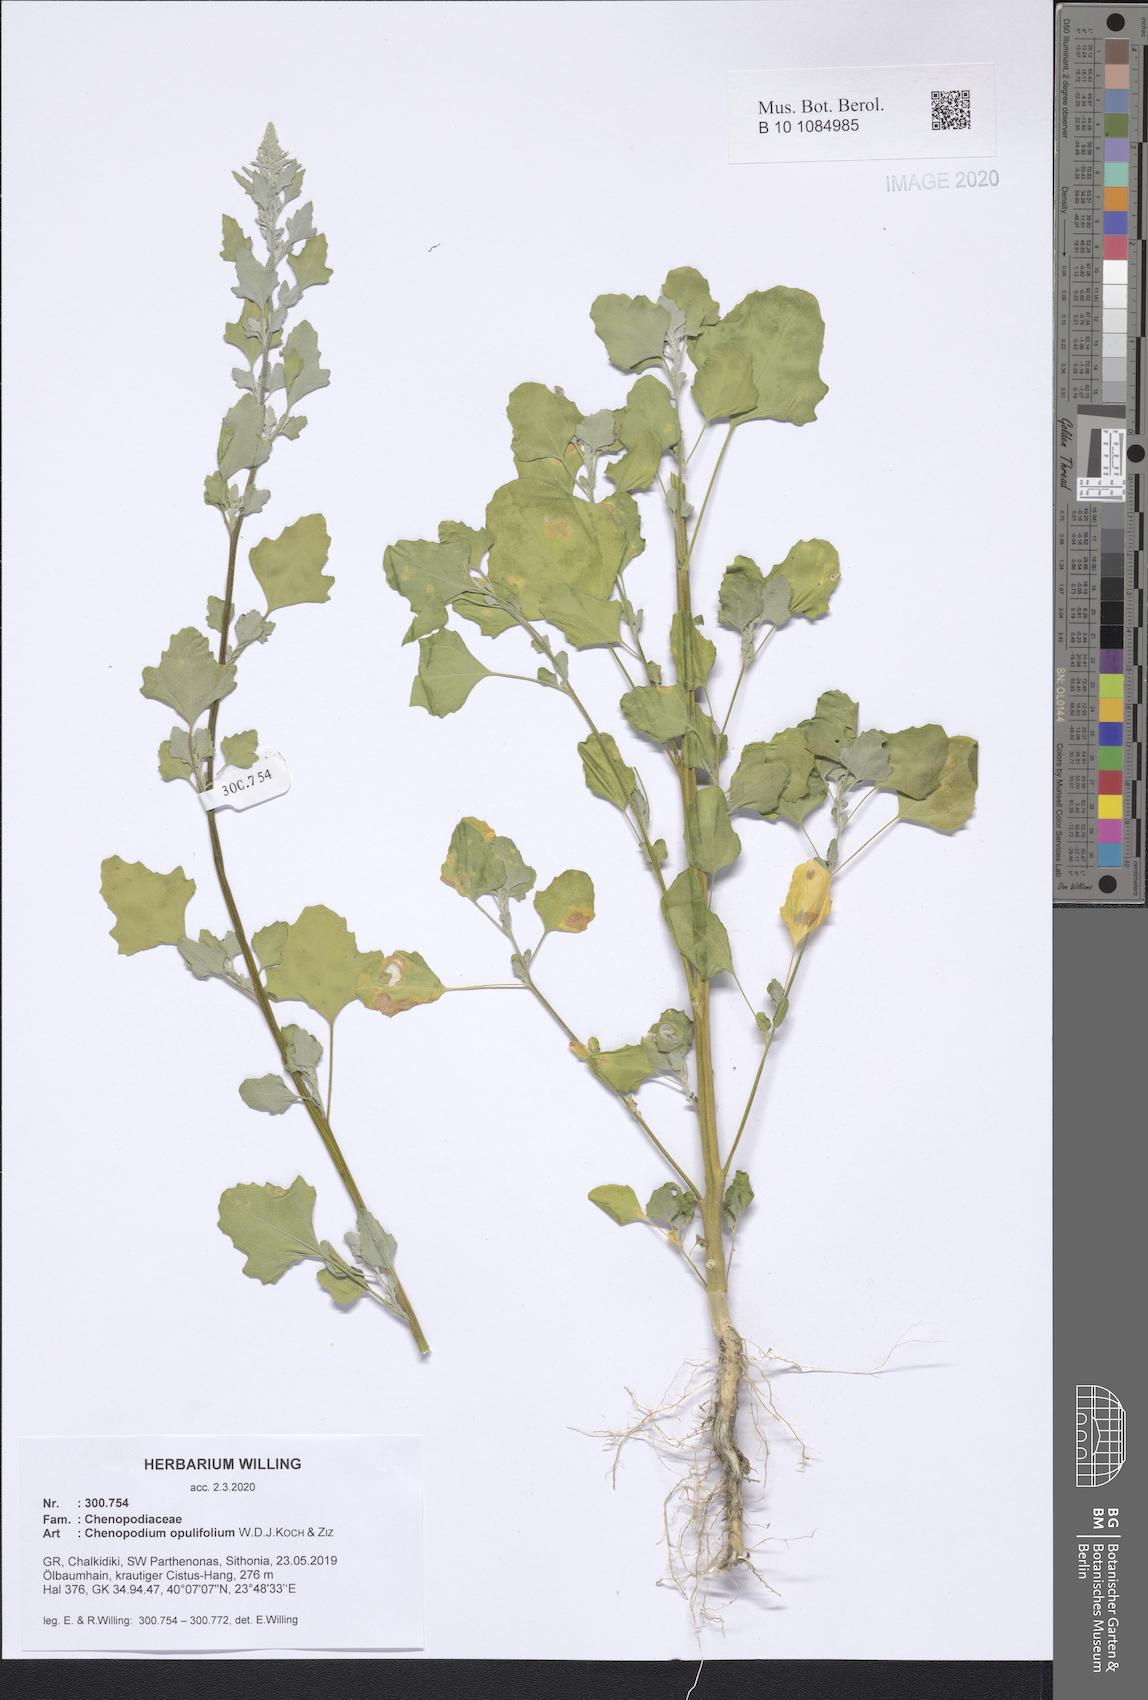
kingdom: Plantae
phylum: Tracheophyta
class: Magnoliopsida
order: Caryophyllales
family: Amaranthaceae
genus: Chenopodium
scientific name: Chenopodium opulifolium
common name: Grey goosefoot
